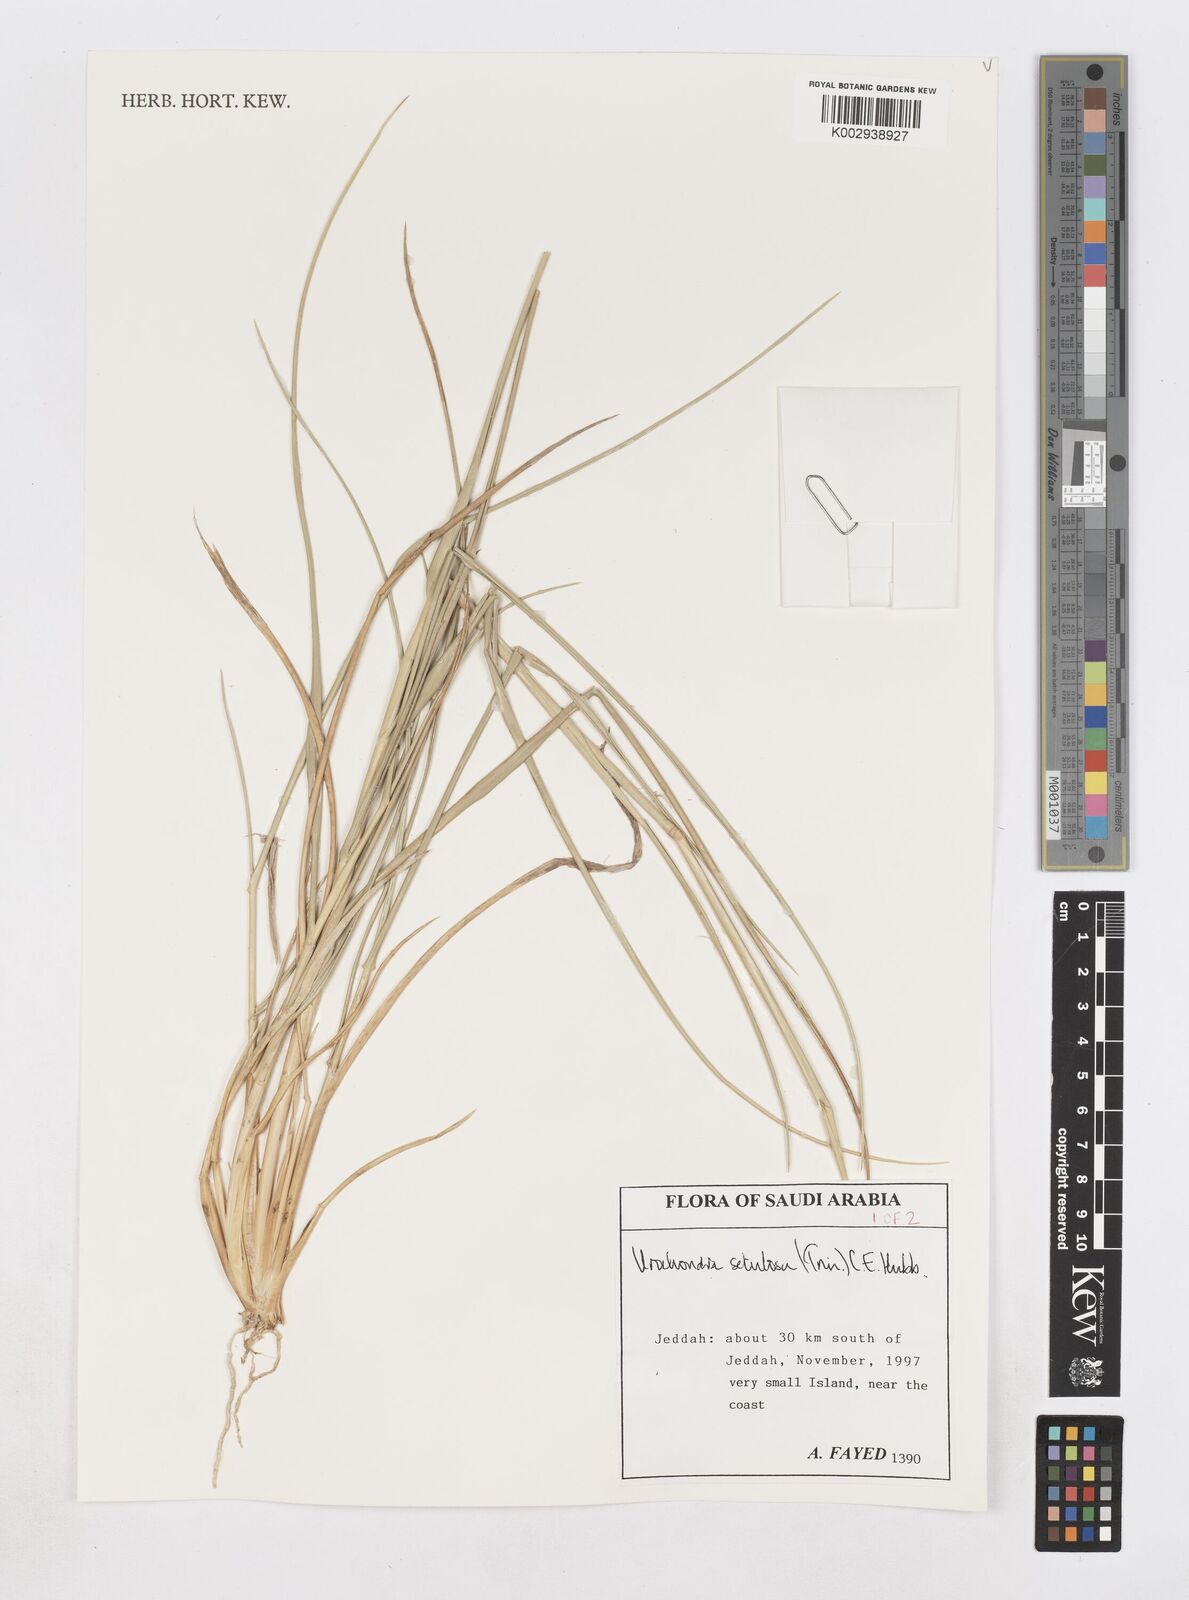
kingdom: Plantae
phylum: Tracheophyta
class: Liliopsida
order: Poales
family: Poaceae
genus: Urochondra
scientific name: Urochondra setulosa
